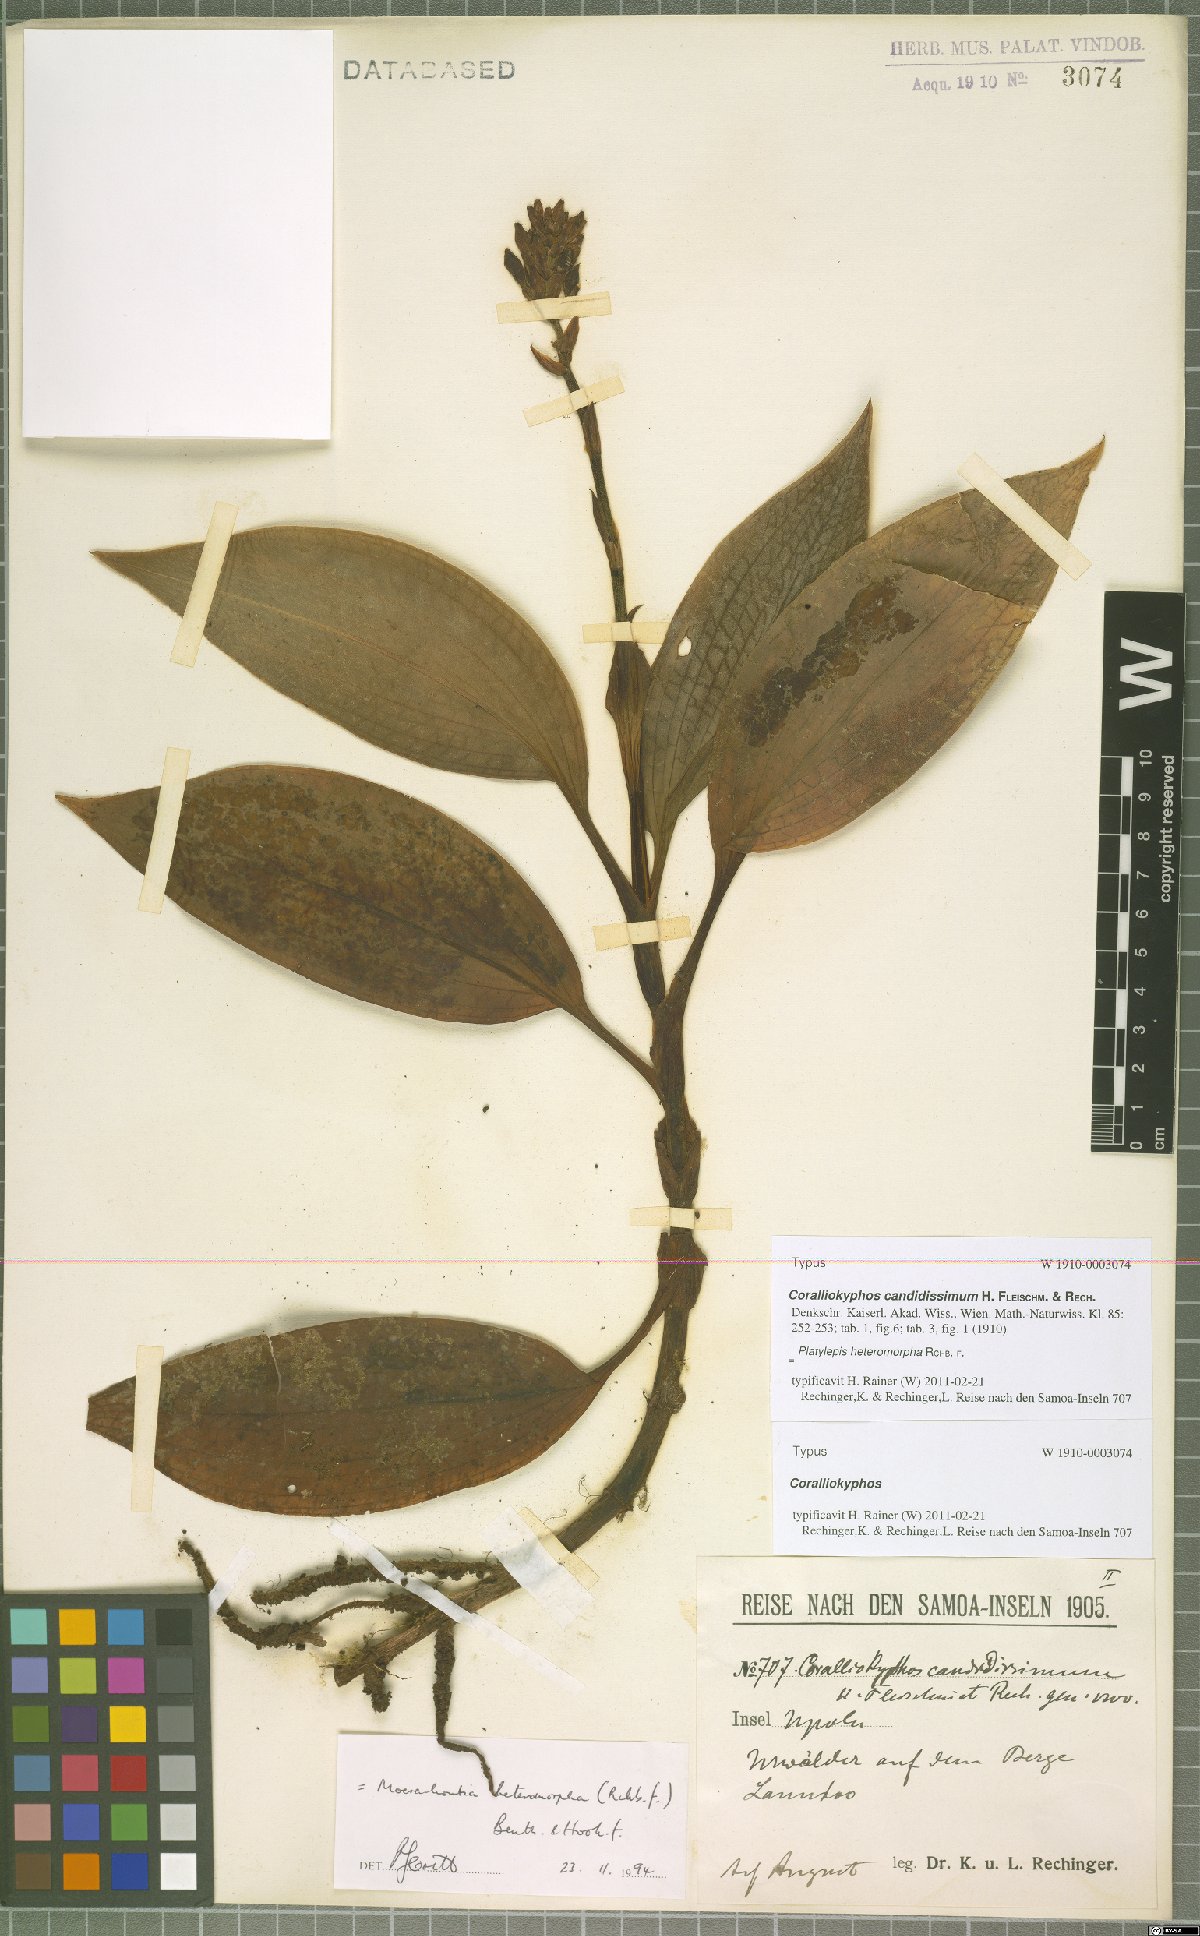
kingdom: Plantae
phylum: Tracheophyta
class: Liliopsida
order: Asparagales
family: Orchidaceae
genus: Platylepis
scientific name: Platylepis heteromorpha
